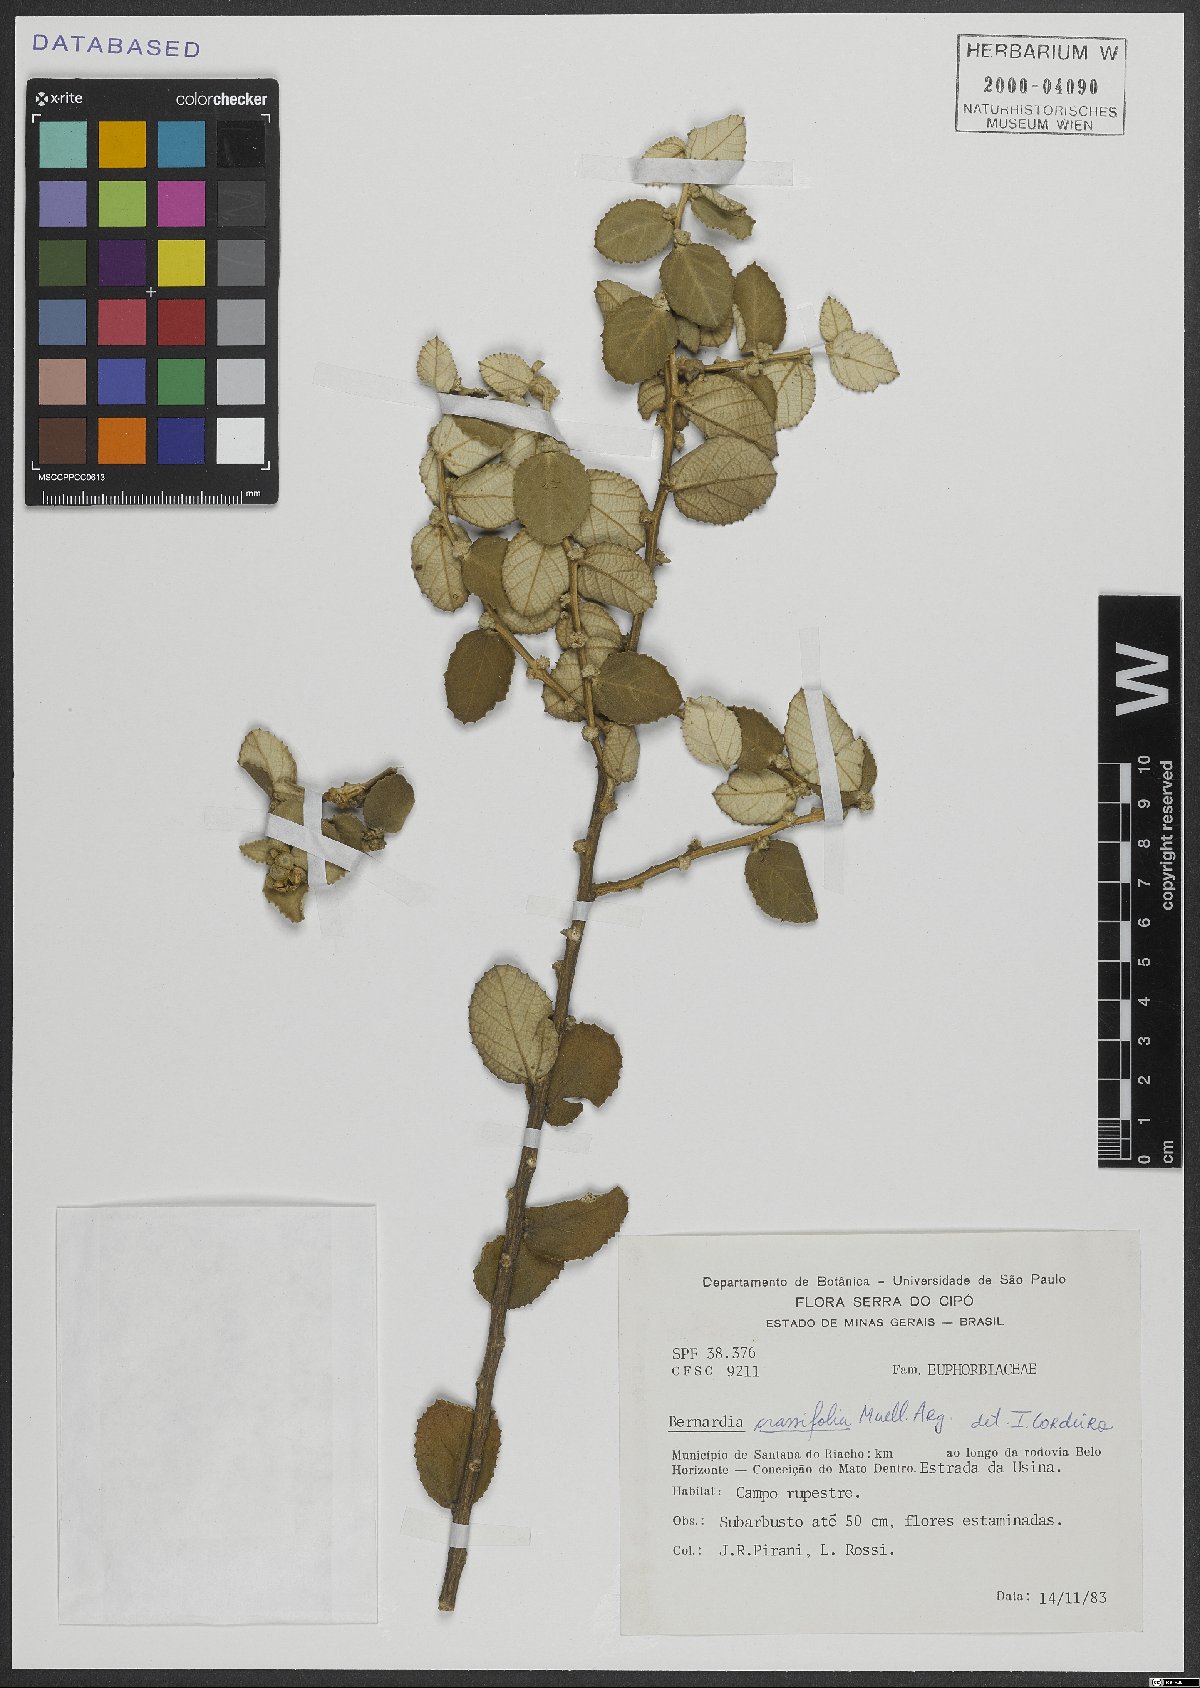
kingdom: Plantae
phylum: Tracheophyta
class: Magnoliopsida
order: Malpighiales
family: Euphorbiaceae
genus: Bernardia
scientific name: Bernardia crassifolia
